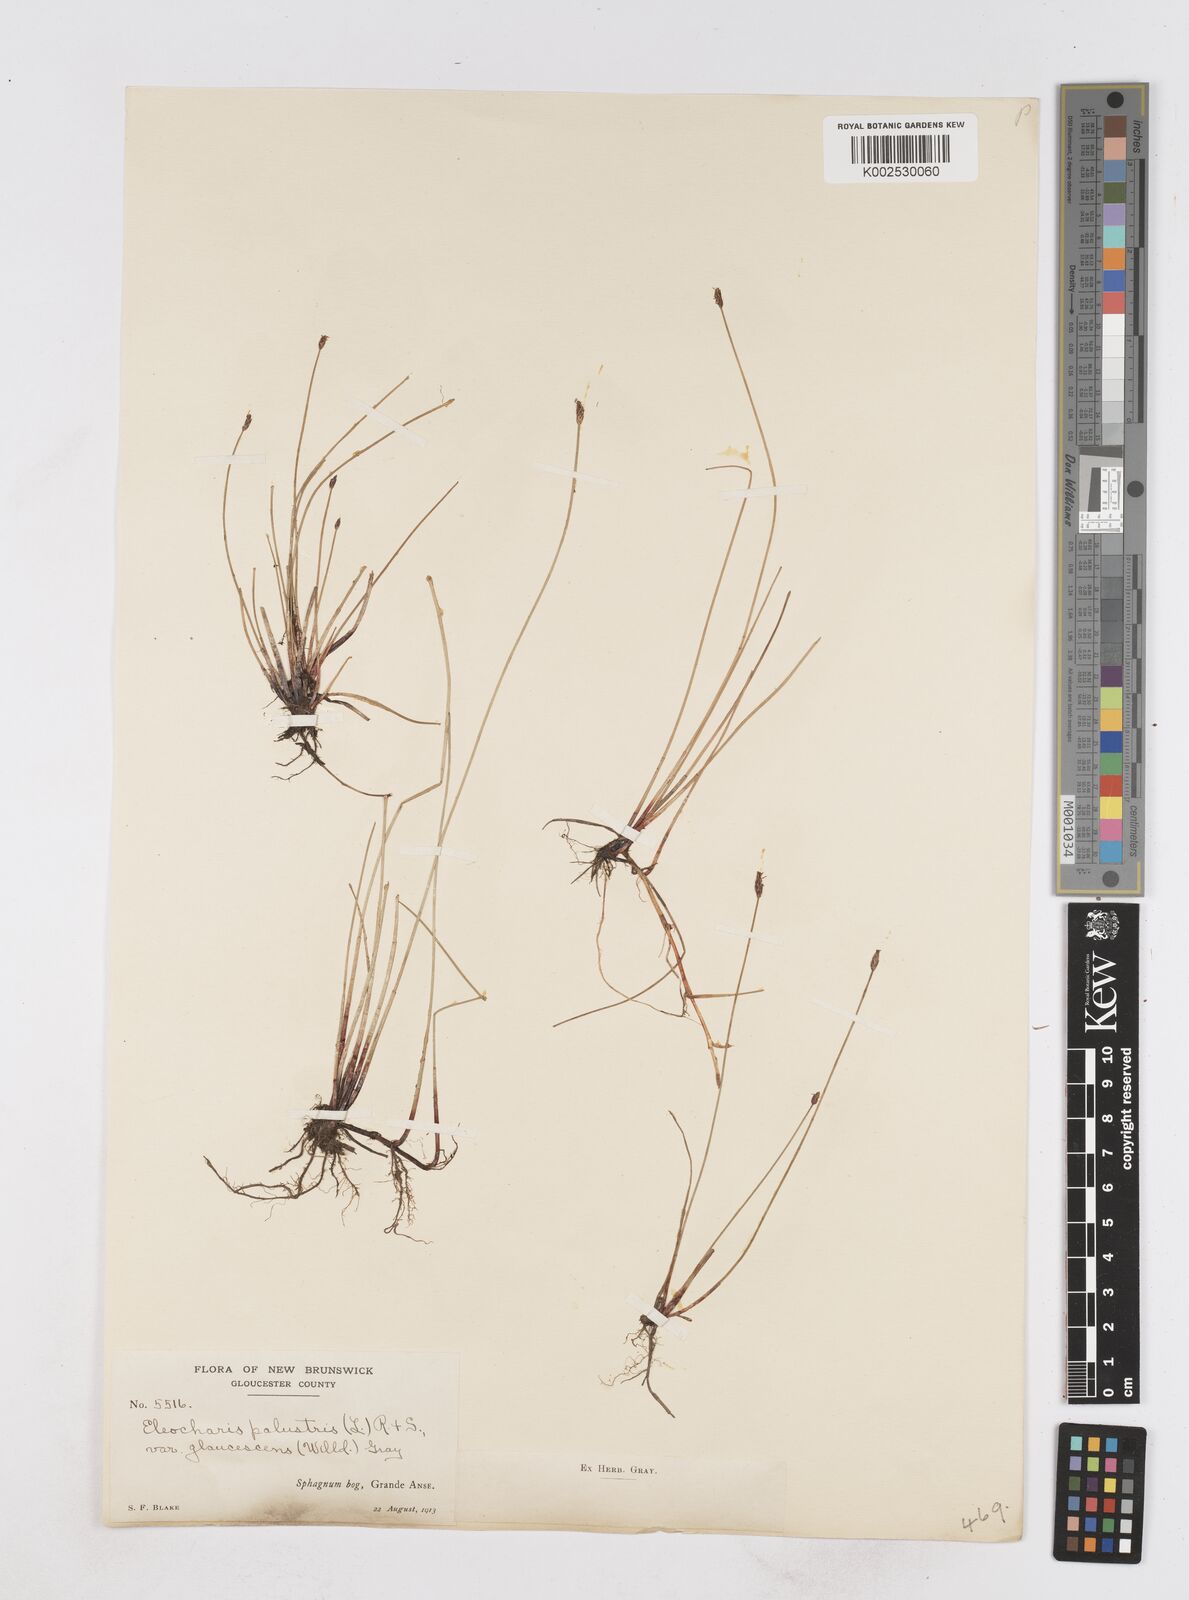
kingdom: Plantae
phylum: Tracheophyta
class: Liliopsida
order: Poales
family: Cyperaceae
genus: Eleocharis
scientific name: Eleocharis palustris
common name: Common spike-rush
